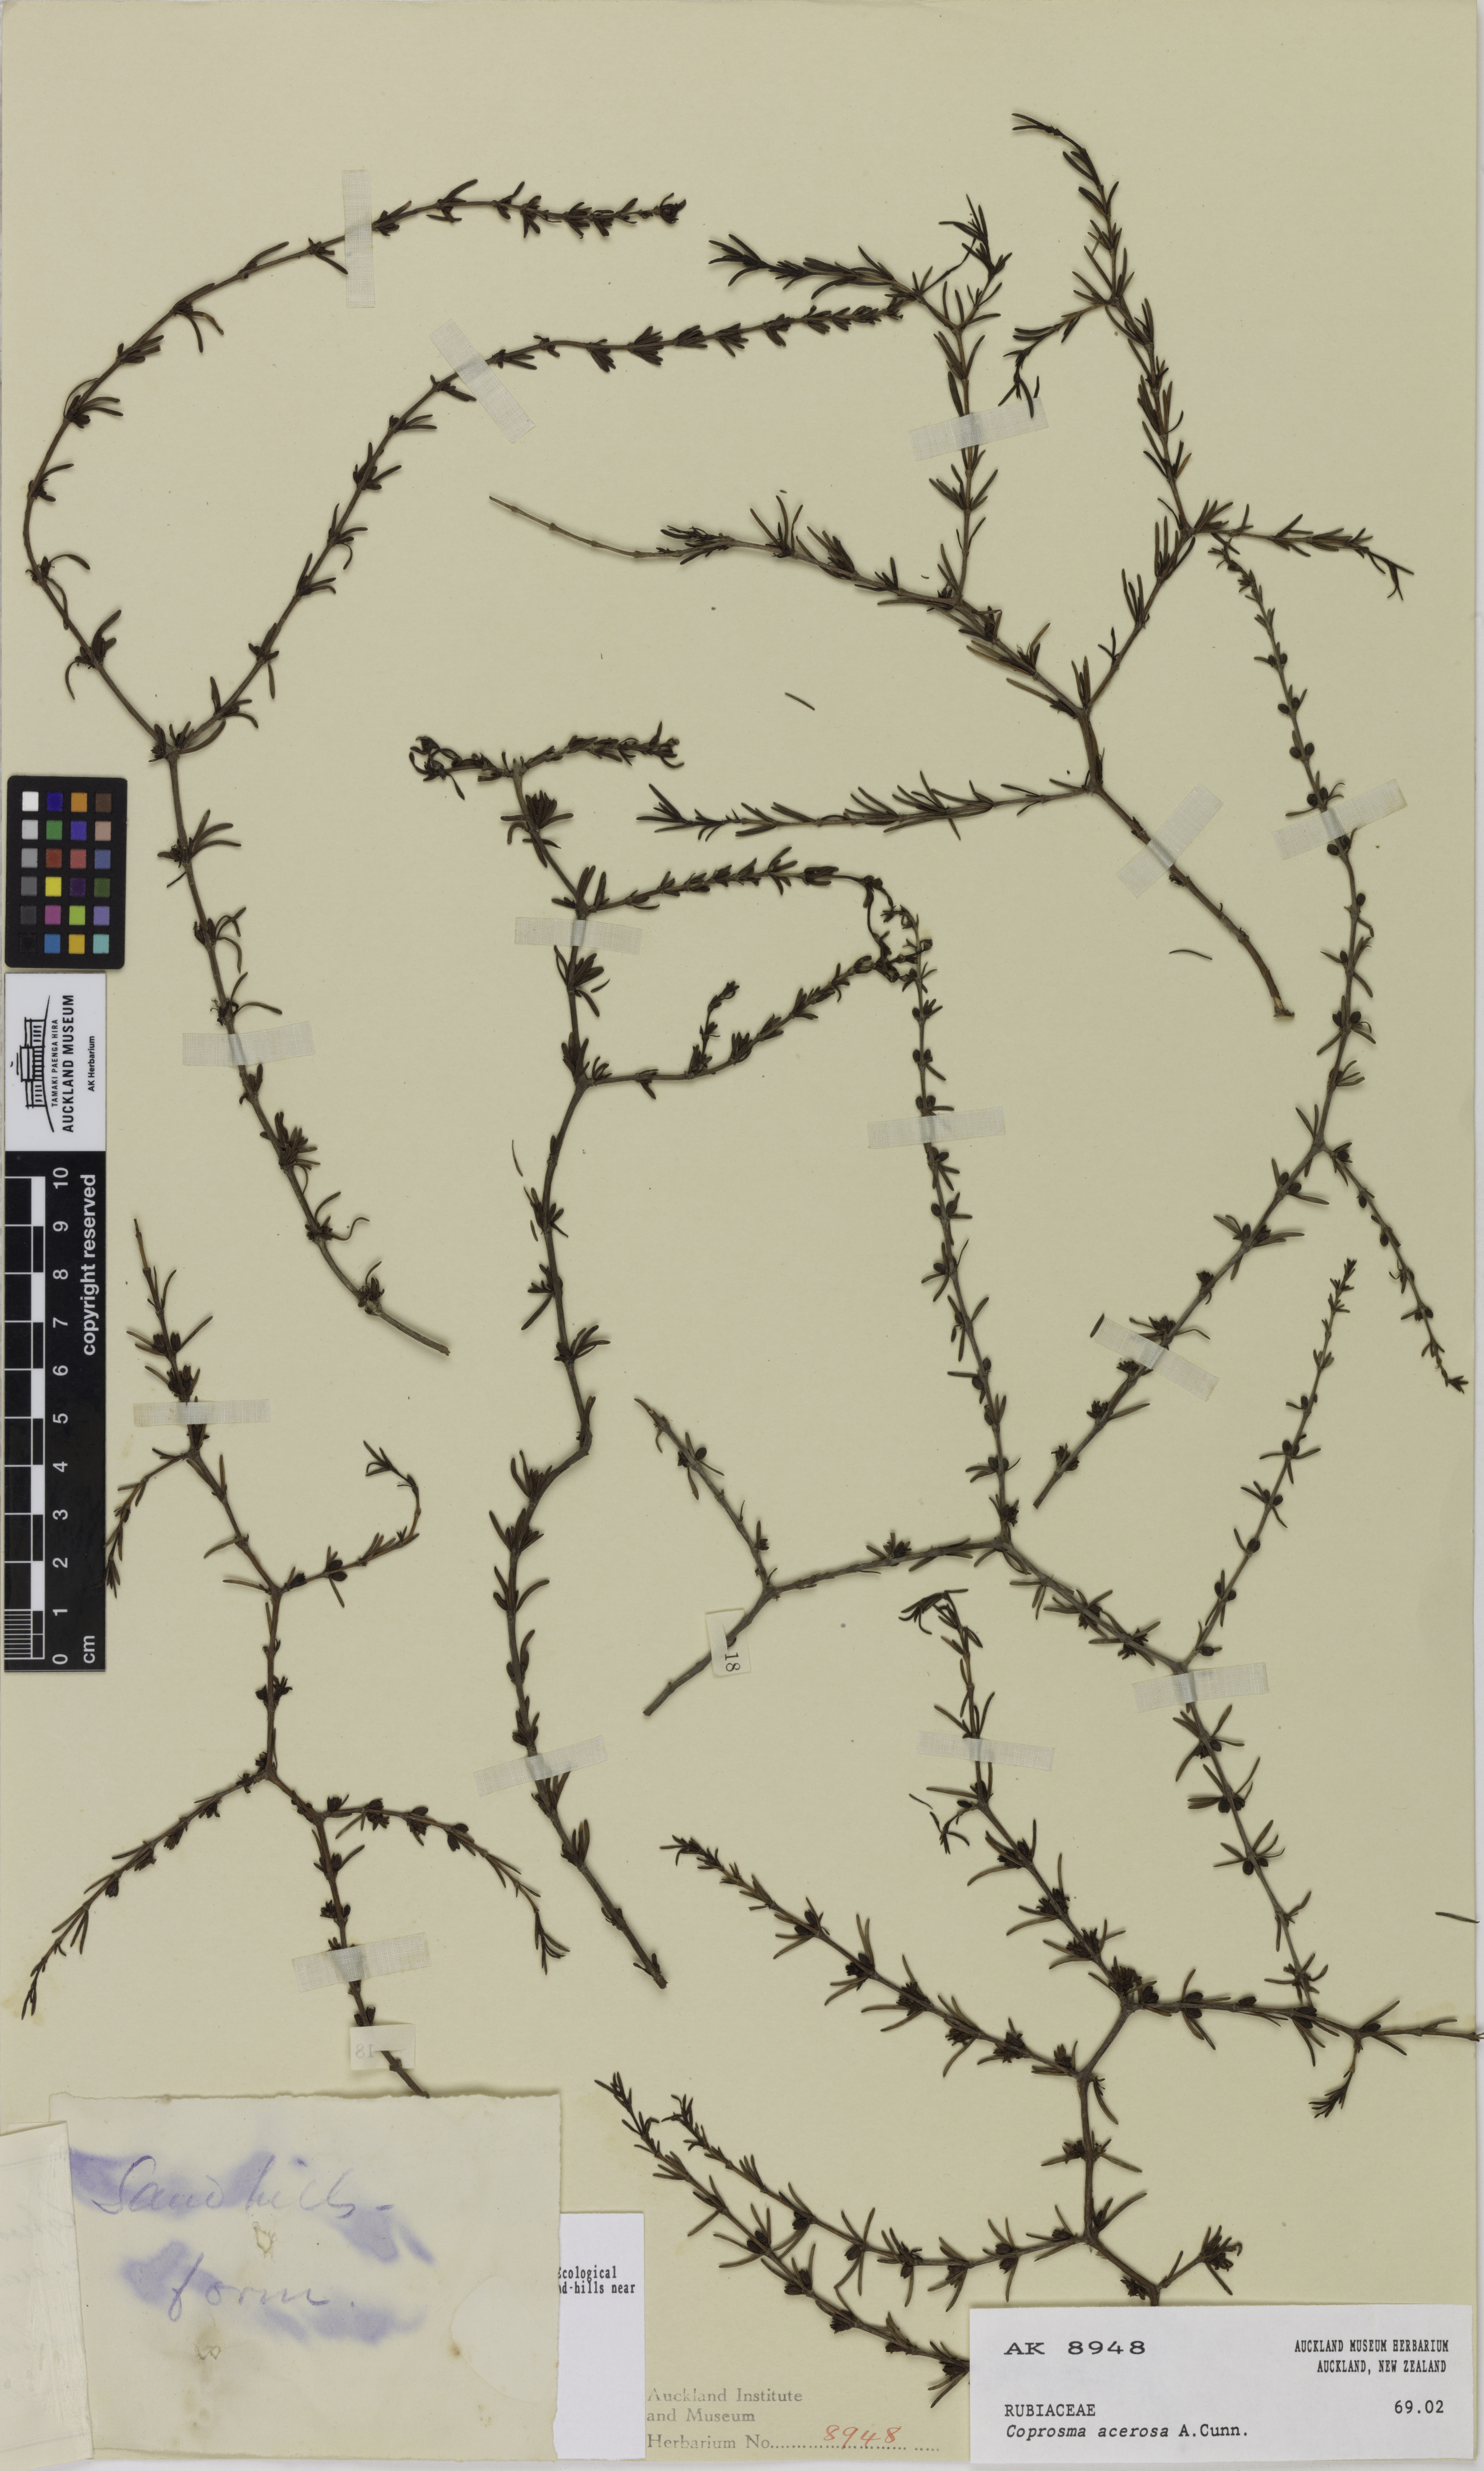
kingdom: Plantae
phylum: Tracheophyta
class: Magnoliopsida
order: Gentianales
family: Rubiaceae
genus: Coprosma
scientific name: Coprosma acerosa
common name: Sand coprosma
